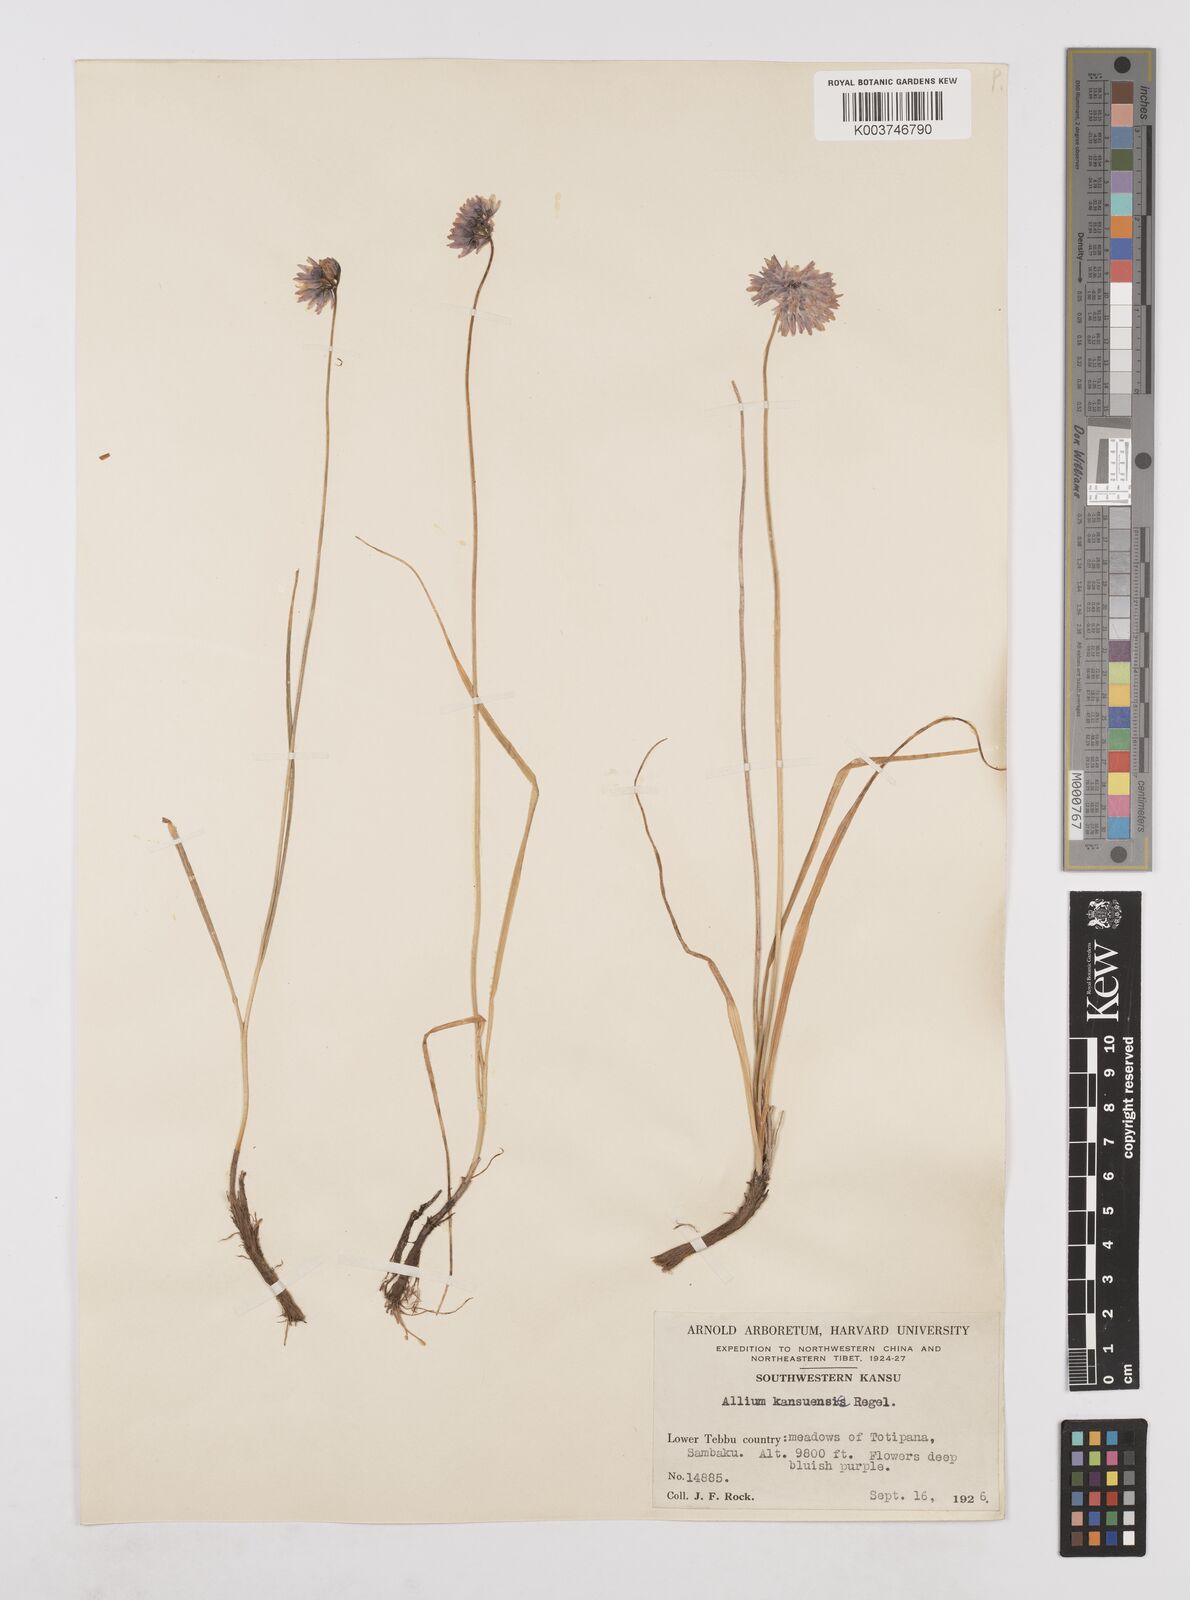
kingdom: Plantae
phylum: Tracheophyta
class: Liliopsida
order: Asparagales
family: Amaryllidaceae
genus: Allium
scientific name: Allium sikkimense
